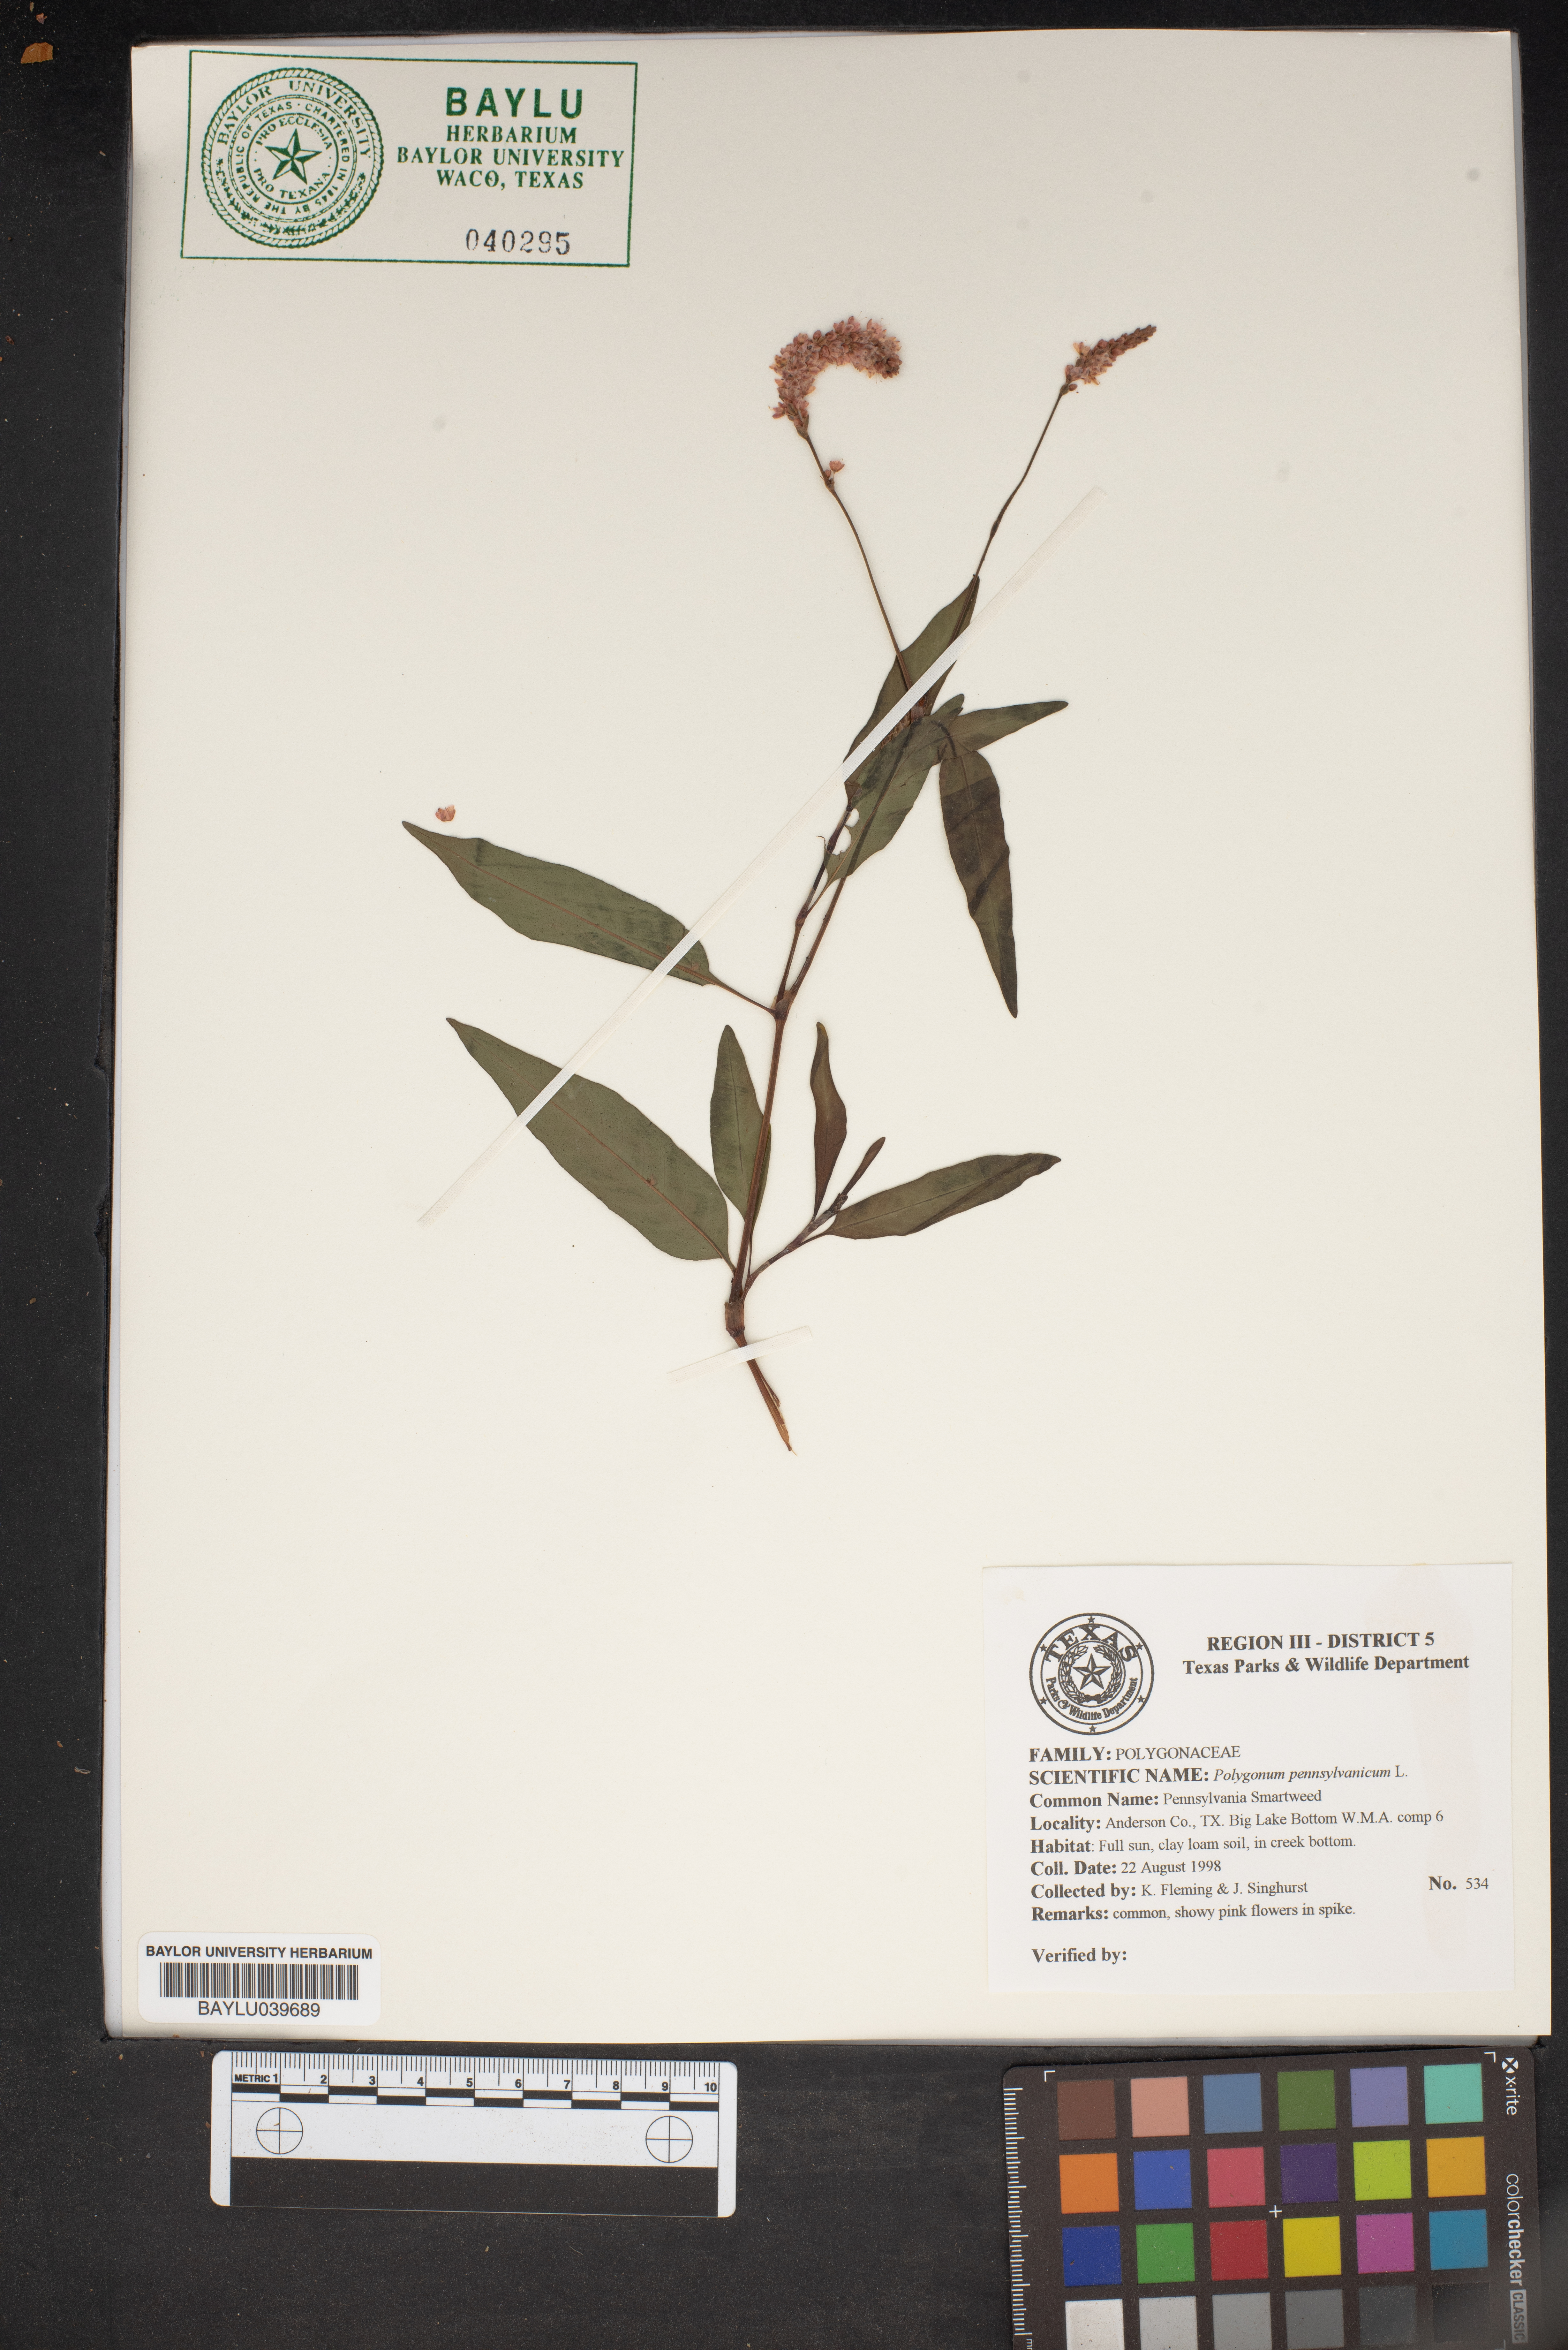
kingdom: Plantae
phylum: Tracheophyta
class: Magnoliopsida
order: Caryophyllales
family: Polygonaceae
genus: Persicaria
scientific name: Persicaria pensylvanica
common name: Pinkweed
